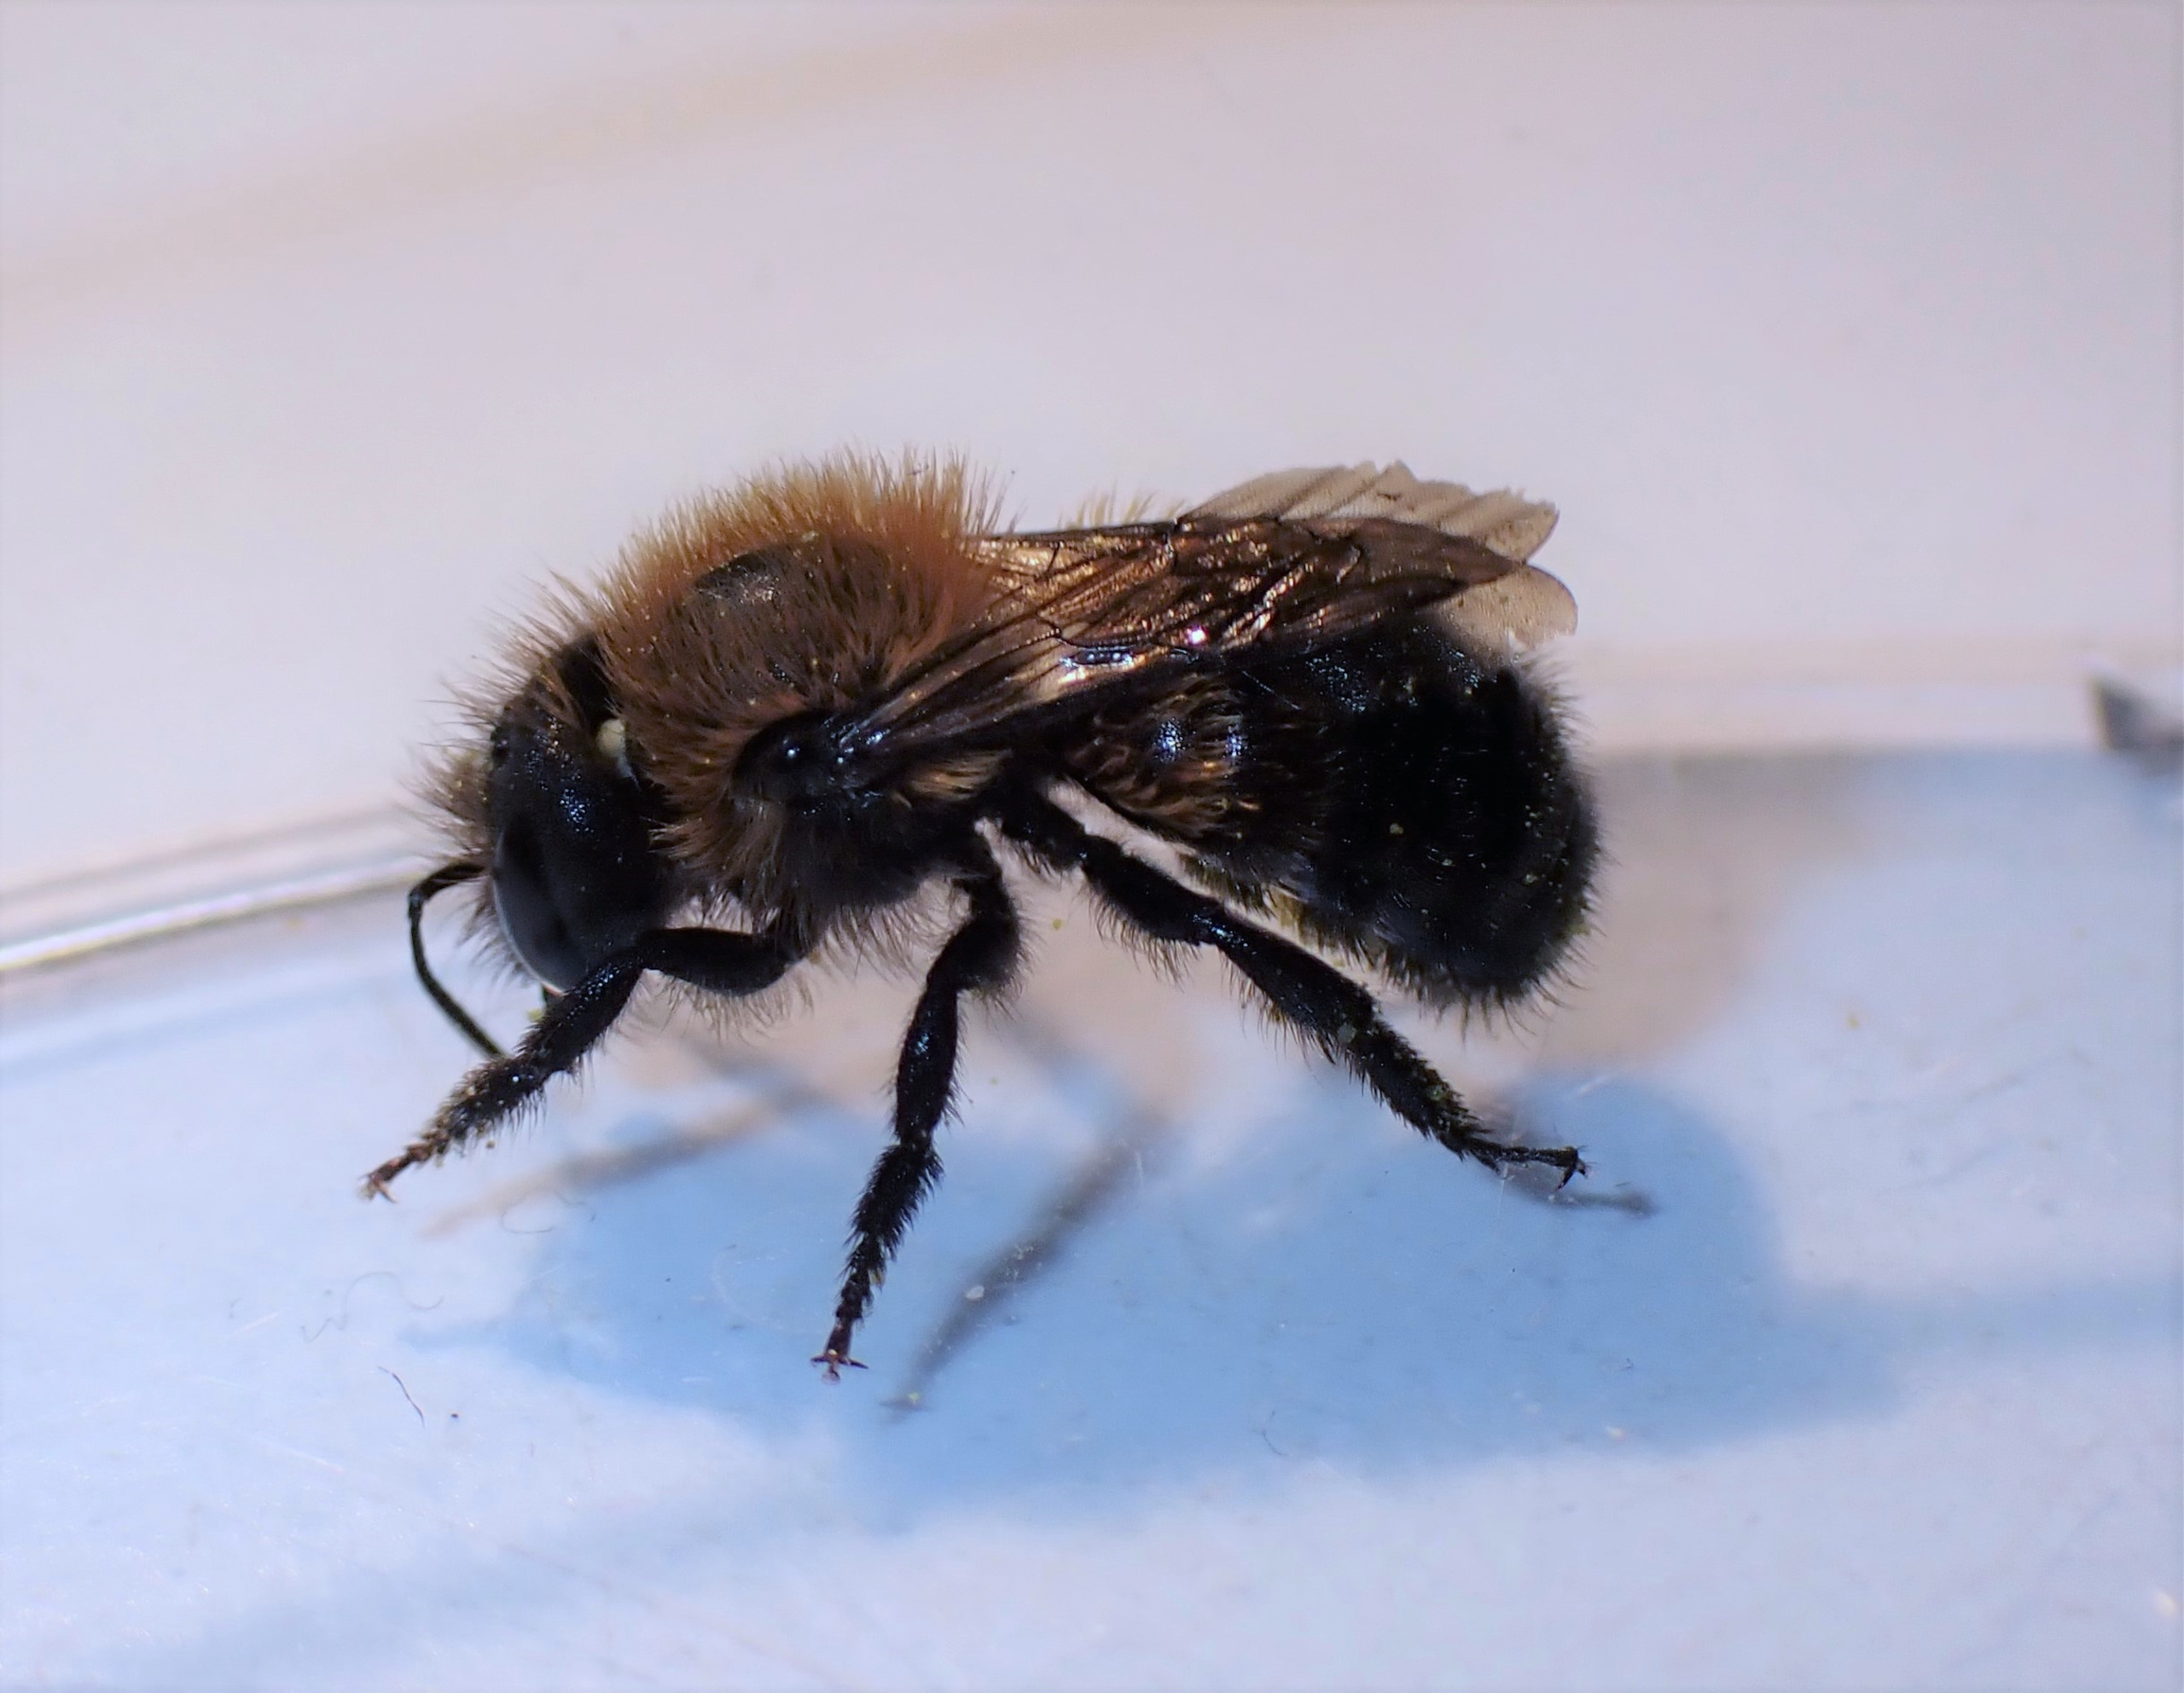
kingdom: Animalia
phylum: Arthropoda
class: Insecta
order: Hymenoptera
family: Megachilidae
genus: Osmia
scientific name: Osmia pilicornis
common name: Skovmurerbi
